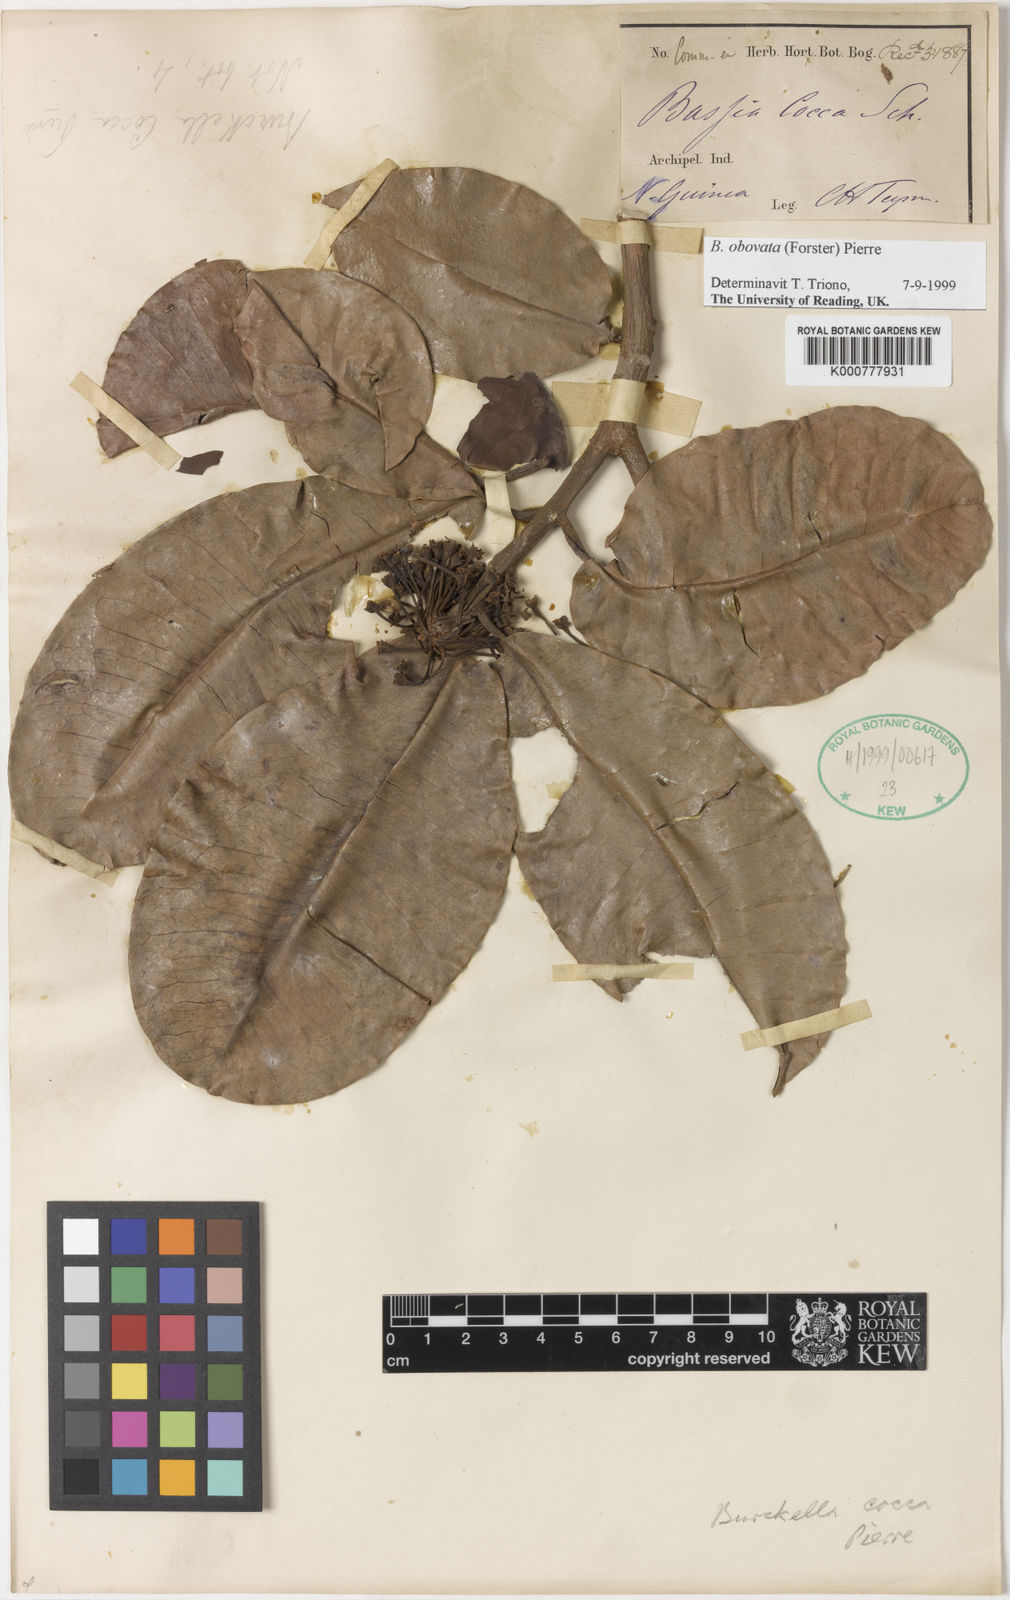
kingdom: Plantae
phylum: Tracheophyta
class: Magnoliopsida
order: Ericales
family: Sapotaceae
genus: Burckella
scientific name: Burckella obovata
